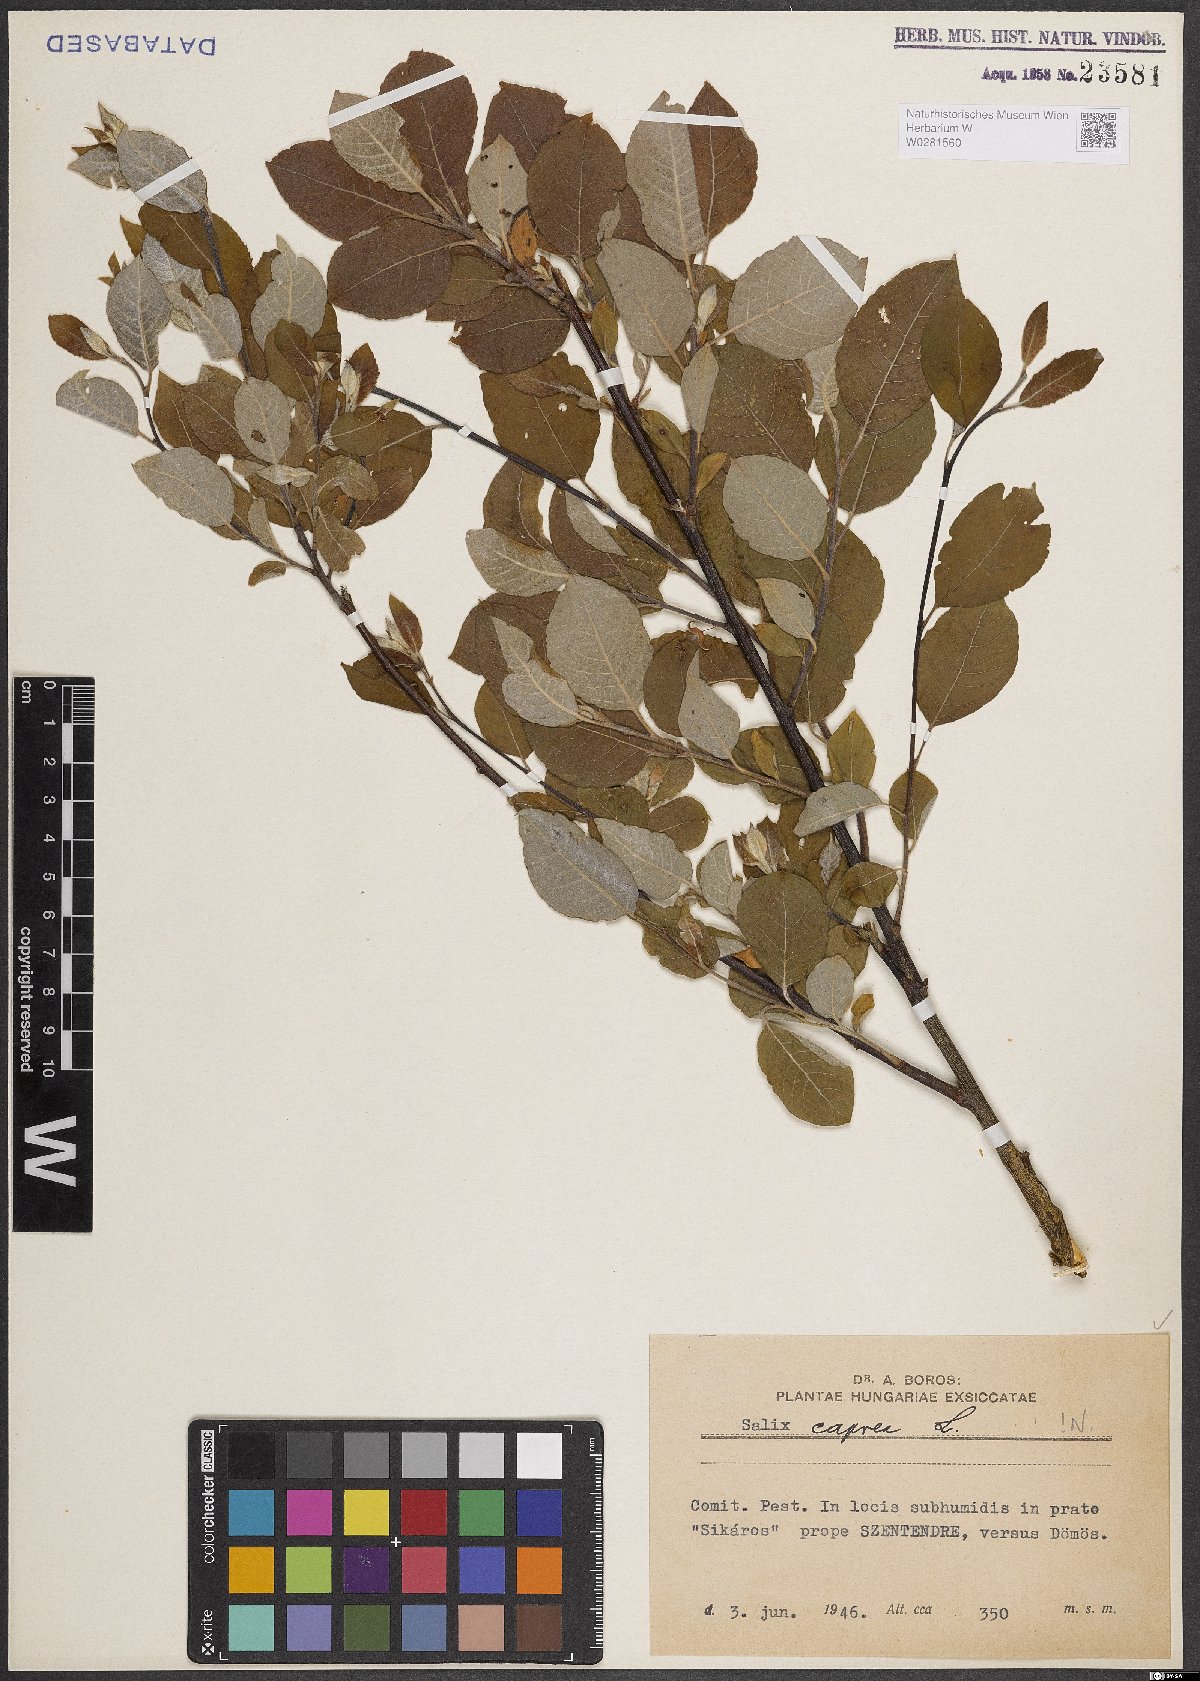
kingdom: Plantae
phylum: Tracheophyta
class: Magnoliopsida
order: Malpighiales
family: Salicaceae
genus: Salix
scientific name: Salix caprea
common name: Goat willow
